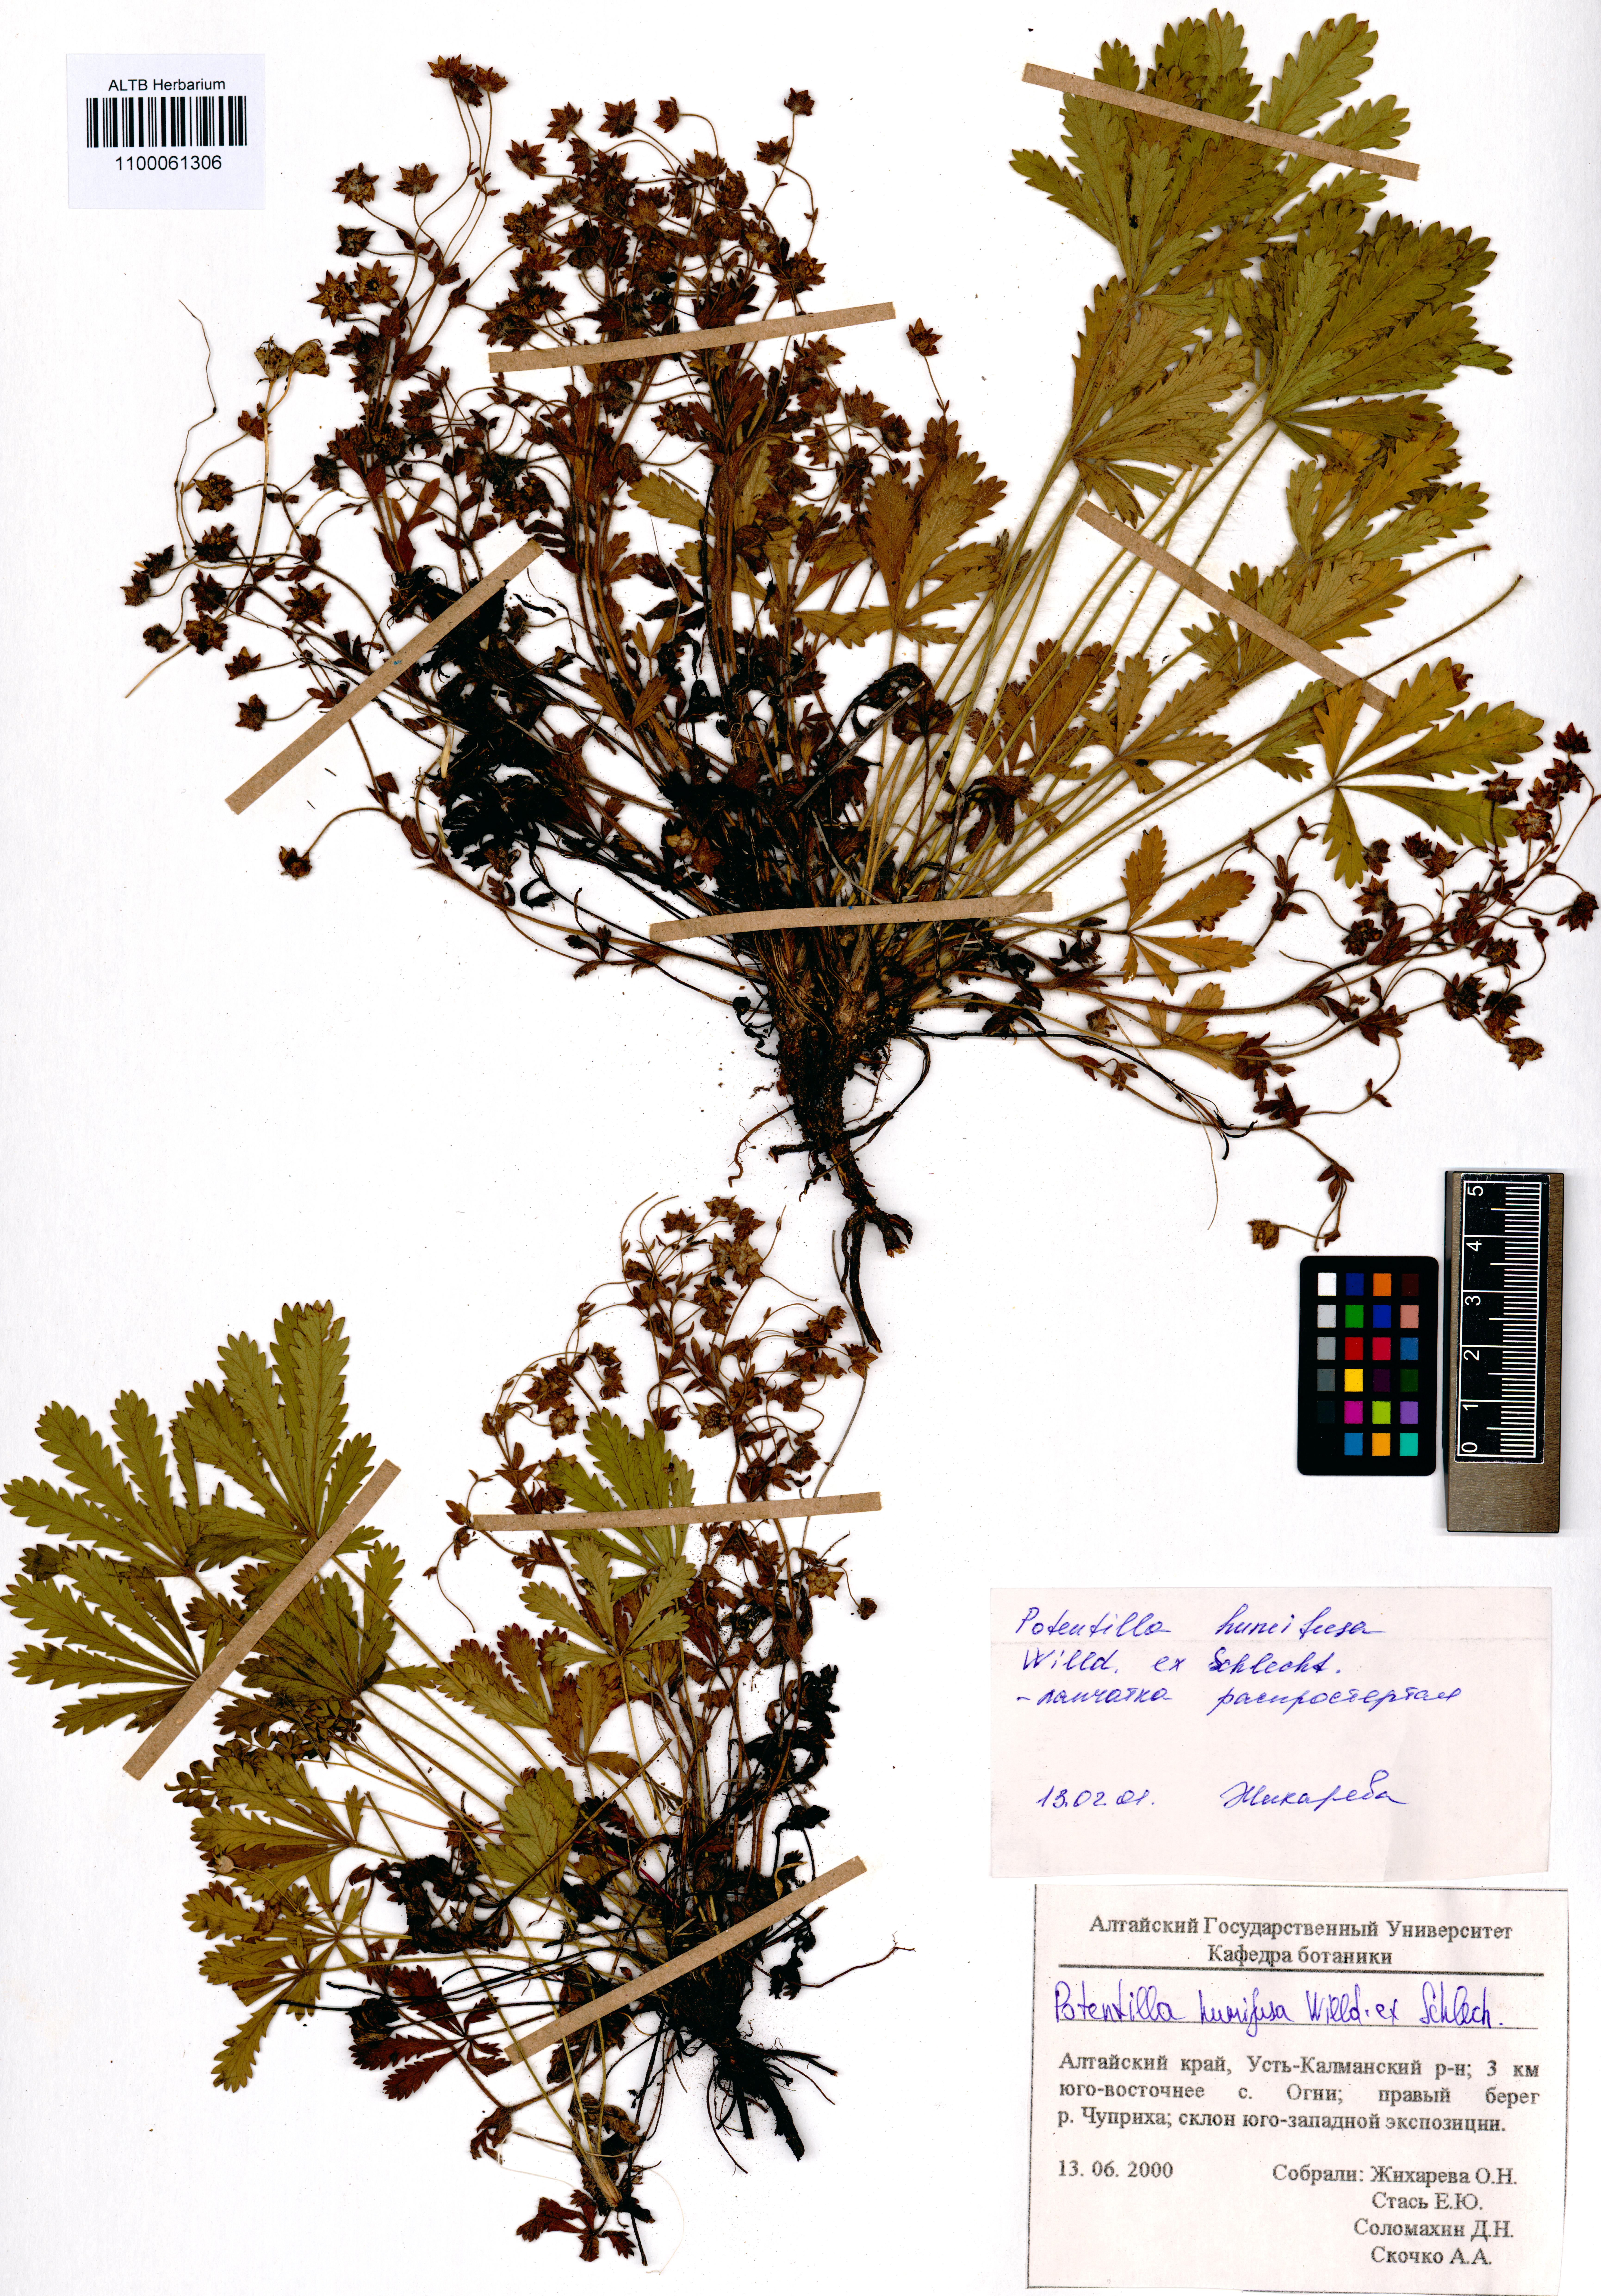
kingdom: Plantae
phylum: Tracheophyta
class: Magnoliopsida
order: Rosales
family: Rosaceae
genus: Potentilla
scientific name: Potentilla humifusa
